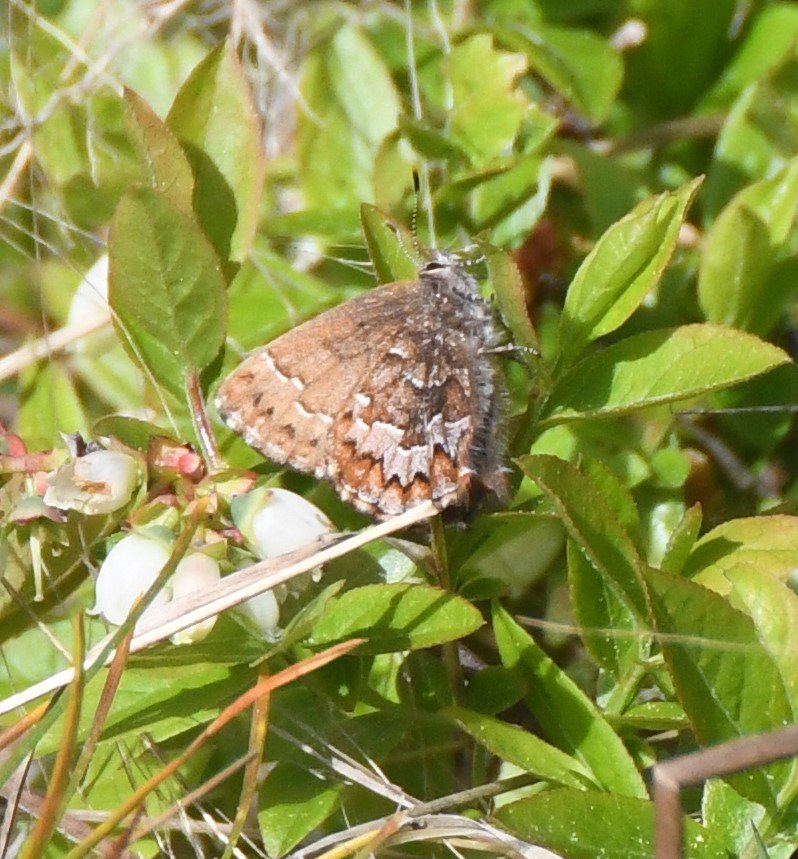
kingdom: Animalia
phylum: Arthropoda
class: Insecta
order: Lepidoptera
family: Lycaenidae
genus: Incisalia
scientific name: Incisalia niphon
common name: Eastern Pine Elfin
